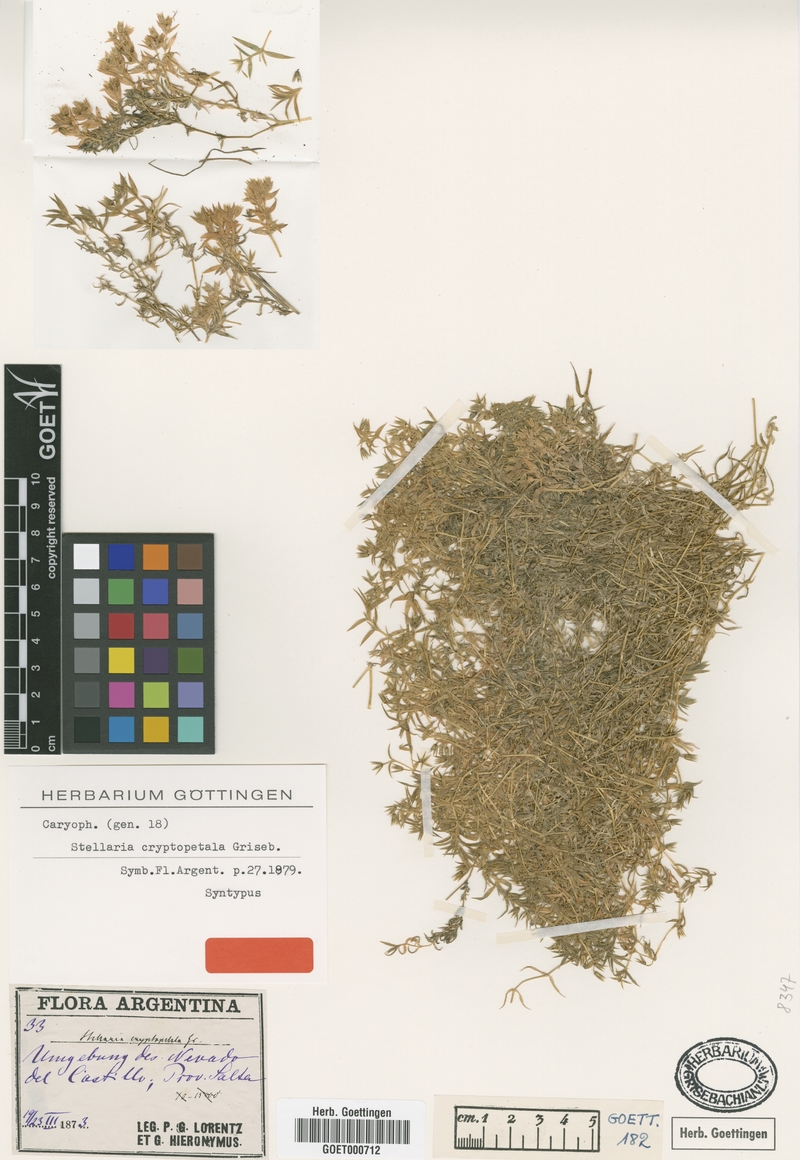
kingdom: Plantae
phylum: Tracheophyta
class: Magnoliopsida
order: Caryophyllales
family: Caryophyllaceae
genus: Stellaria
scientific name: Stellaria cryptopetala
